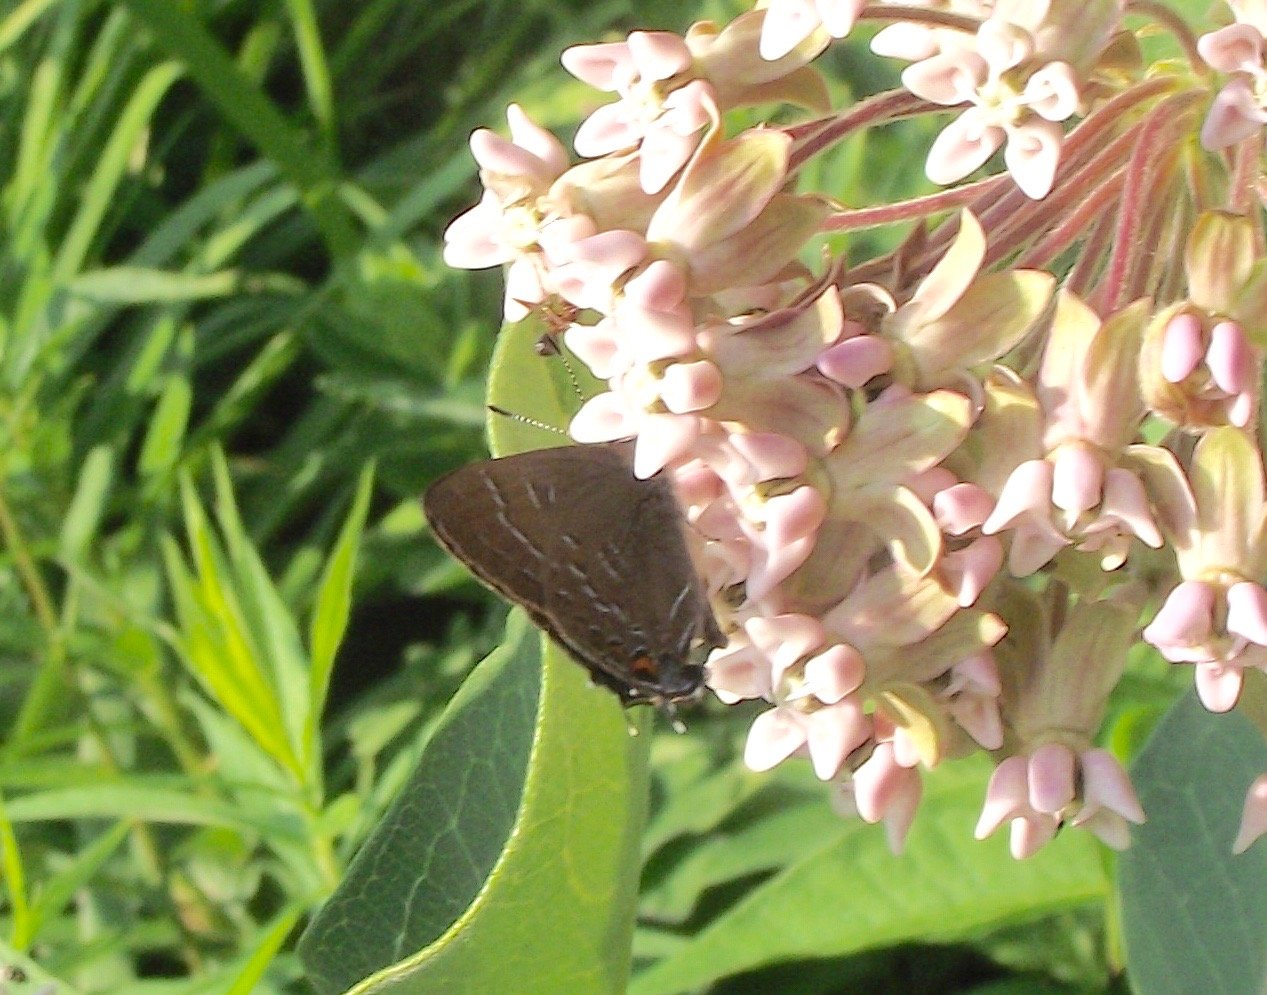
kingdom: Animalia
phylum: Arthropoda
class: Insecta
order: Lepidoptera
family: Lycaenidae
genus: Satyrium
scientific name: Satyrium calanus
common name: Banded Hairstreak
